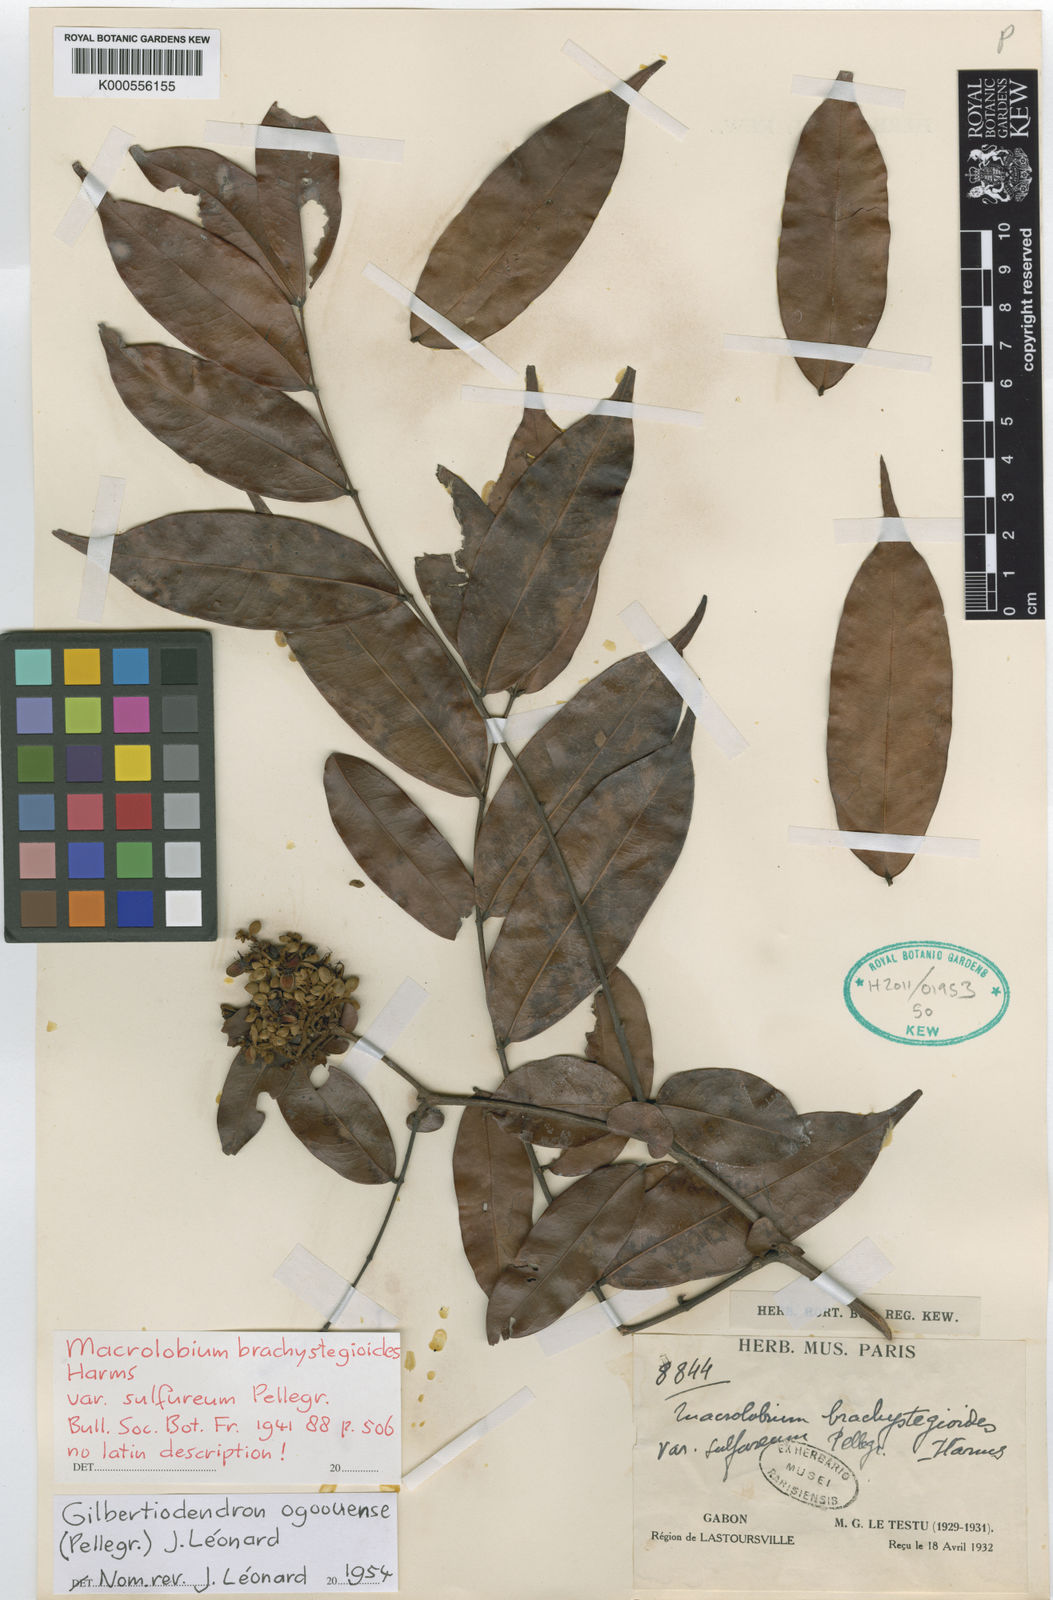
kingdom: Plantae
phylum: Tracheophyta
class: Magnoliopsida
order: Fabales
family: Fabaceae
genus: Gilbertiodendron
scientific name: Gilbertiodendron ogoouense
